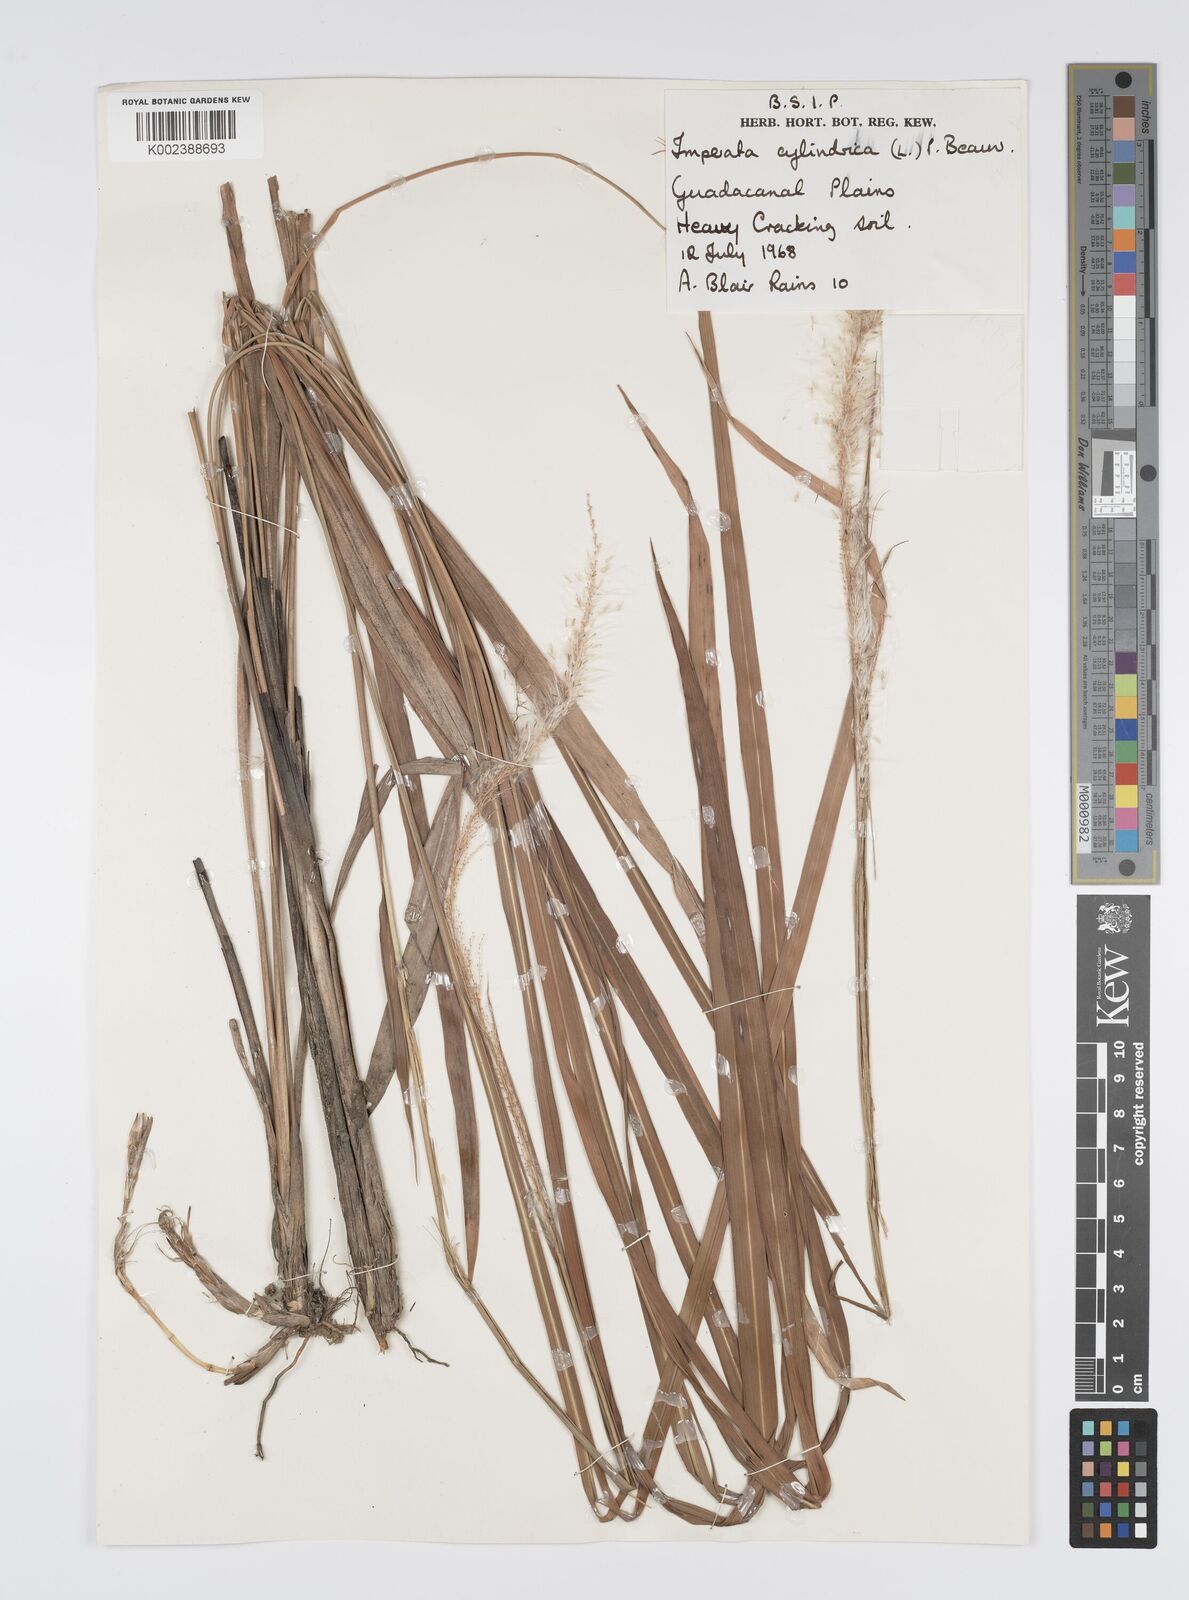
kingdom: Plantae
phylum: Tracheophyta
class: Liliopsida
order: Poales
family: Poaceae
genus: Imperata
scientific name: Imperata cylindrica
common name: Cogongrass
